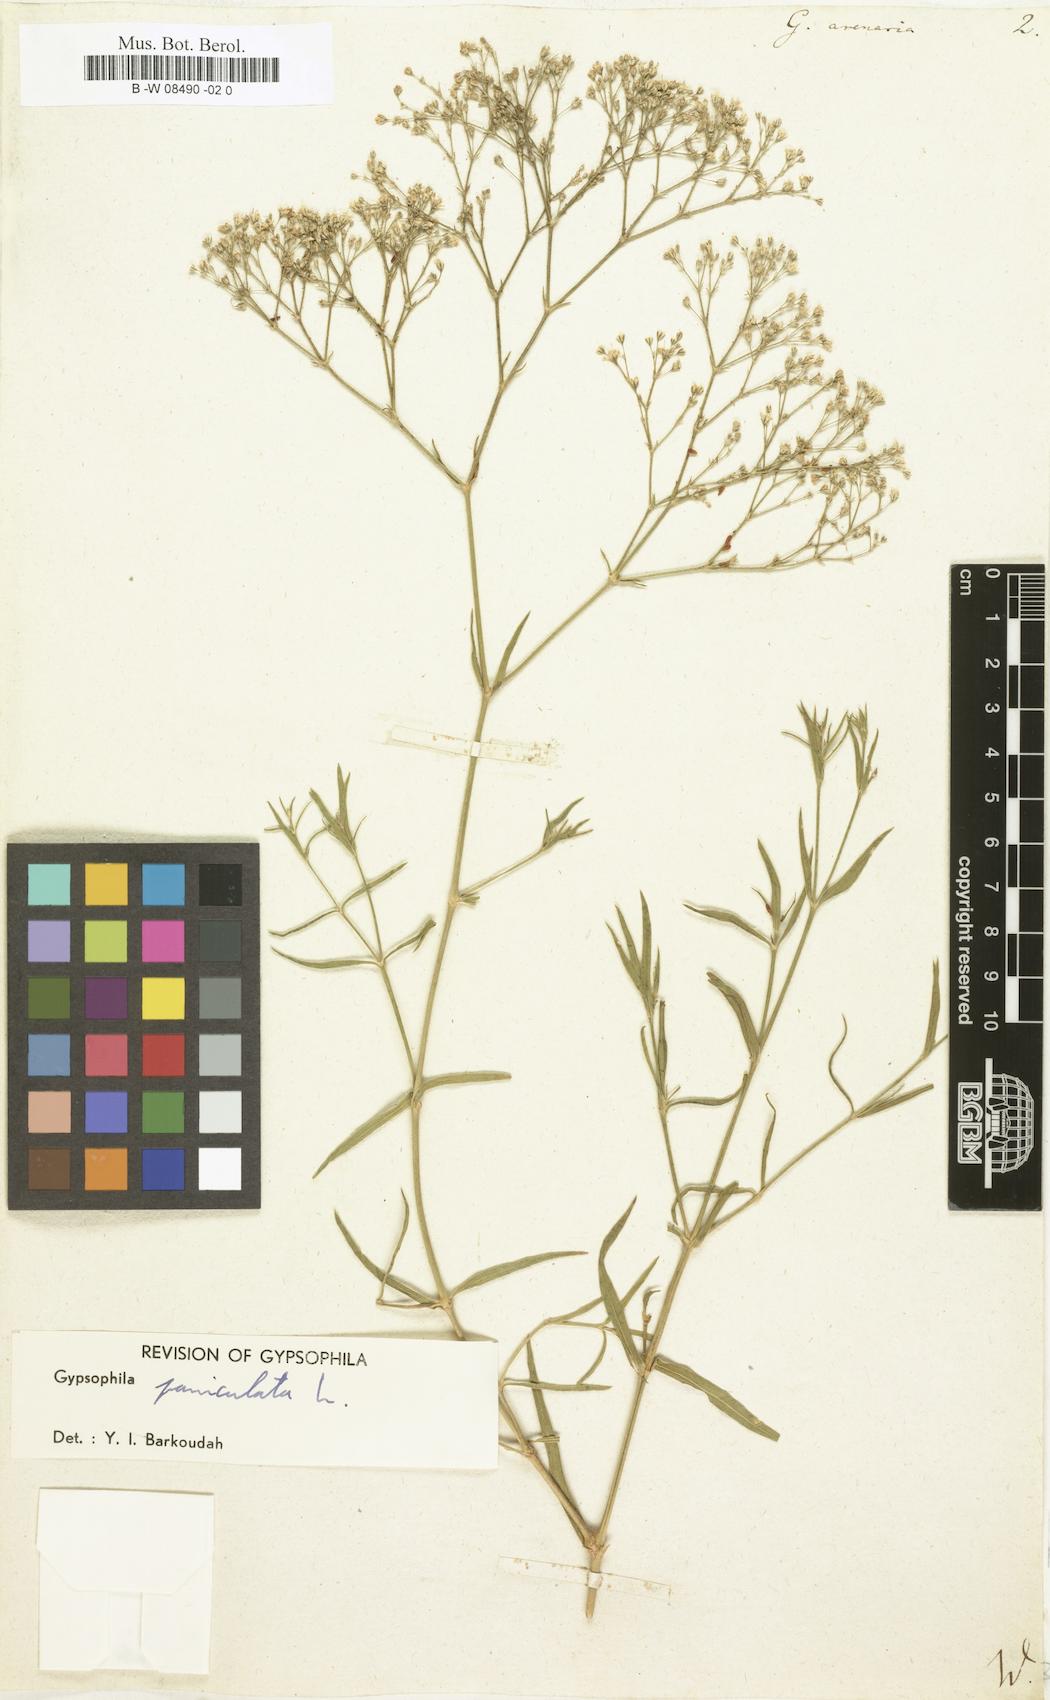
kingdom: Plantae
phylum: Tracheophyta
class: Magnoliopsida
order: Caryophyllales
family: Caryophyllaceae
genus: Gypsophila
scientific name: Gypsophila fastigiata
